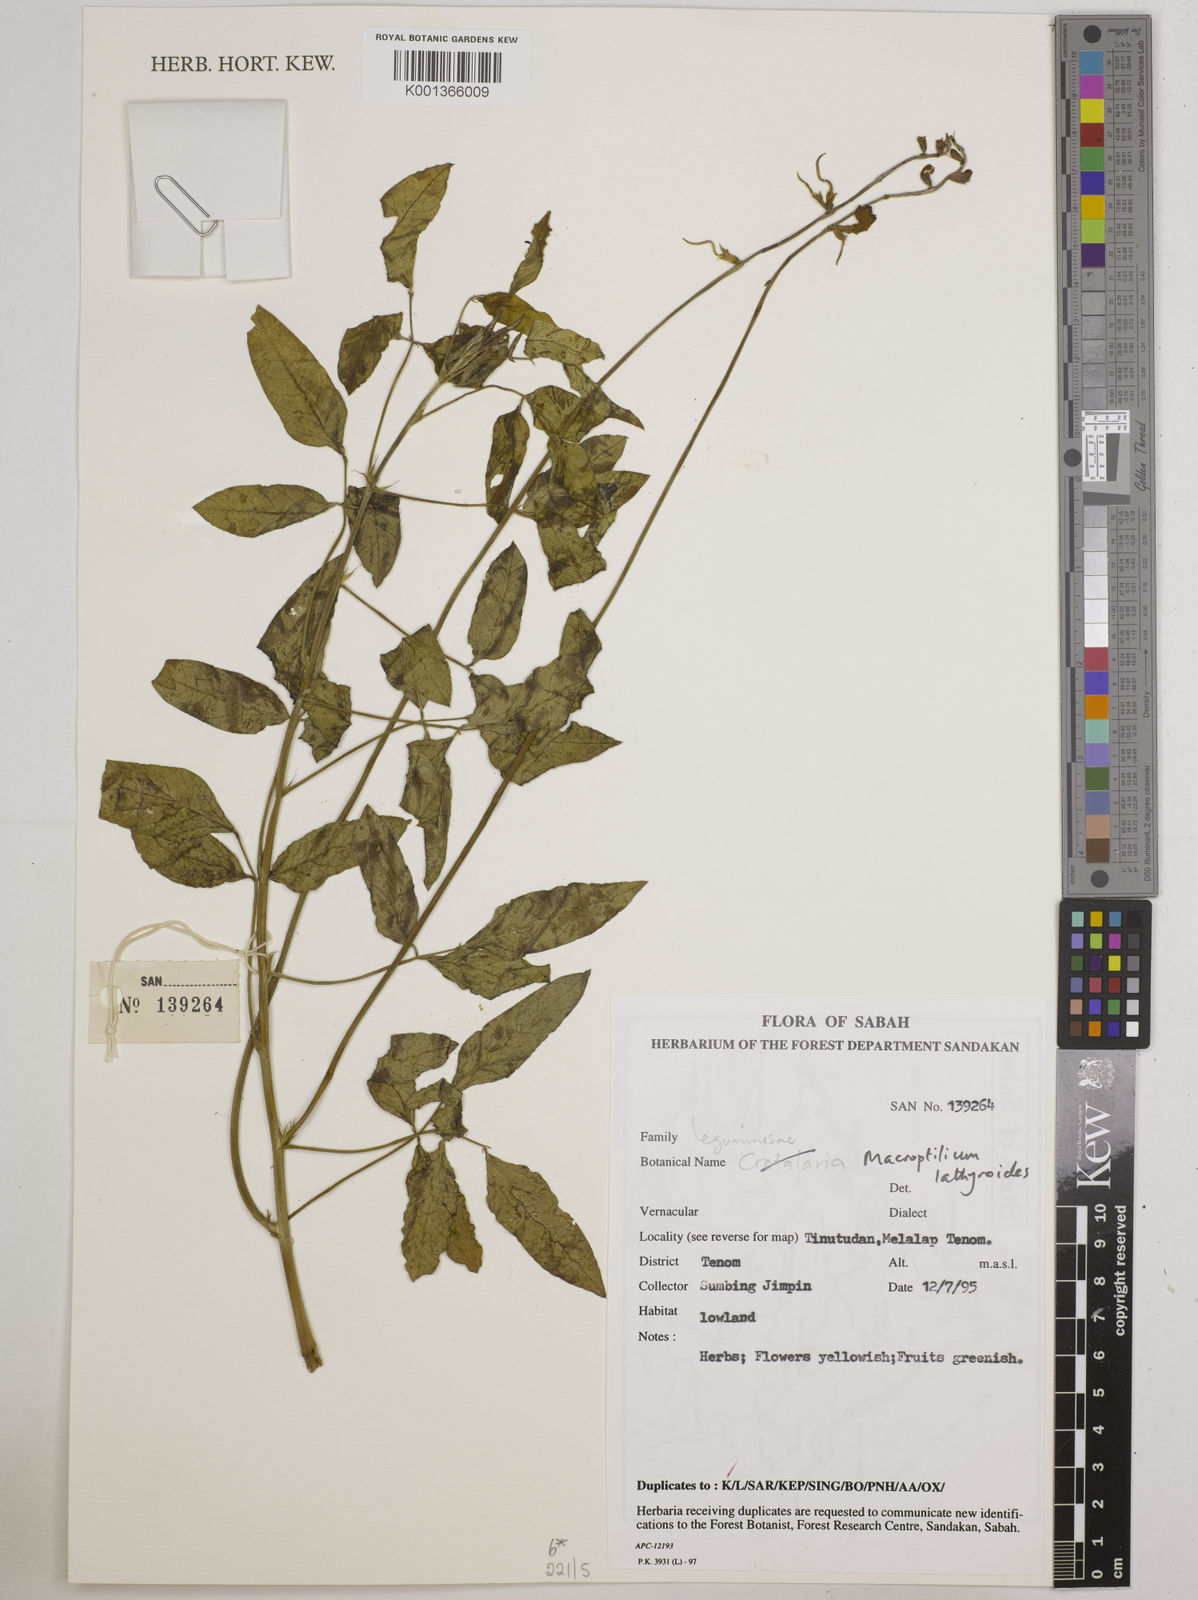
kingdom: Plantae
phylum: Tracheophyta
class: Magnoliopsida
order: Fabales
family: Fabaceae
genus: Macroptilium
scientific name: Macroptilium lathyroides
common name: Wild bushbean
